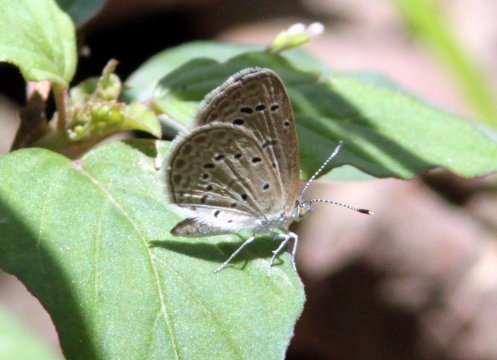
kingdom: Animalia
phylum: Arthropoda
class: Insecta
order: Lepidoptera
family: Lycaenidae
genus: Zizeeria
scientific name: Zizeeria karsandra
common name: Dark Grass Blue
